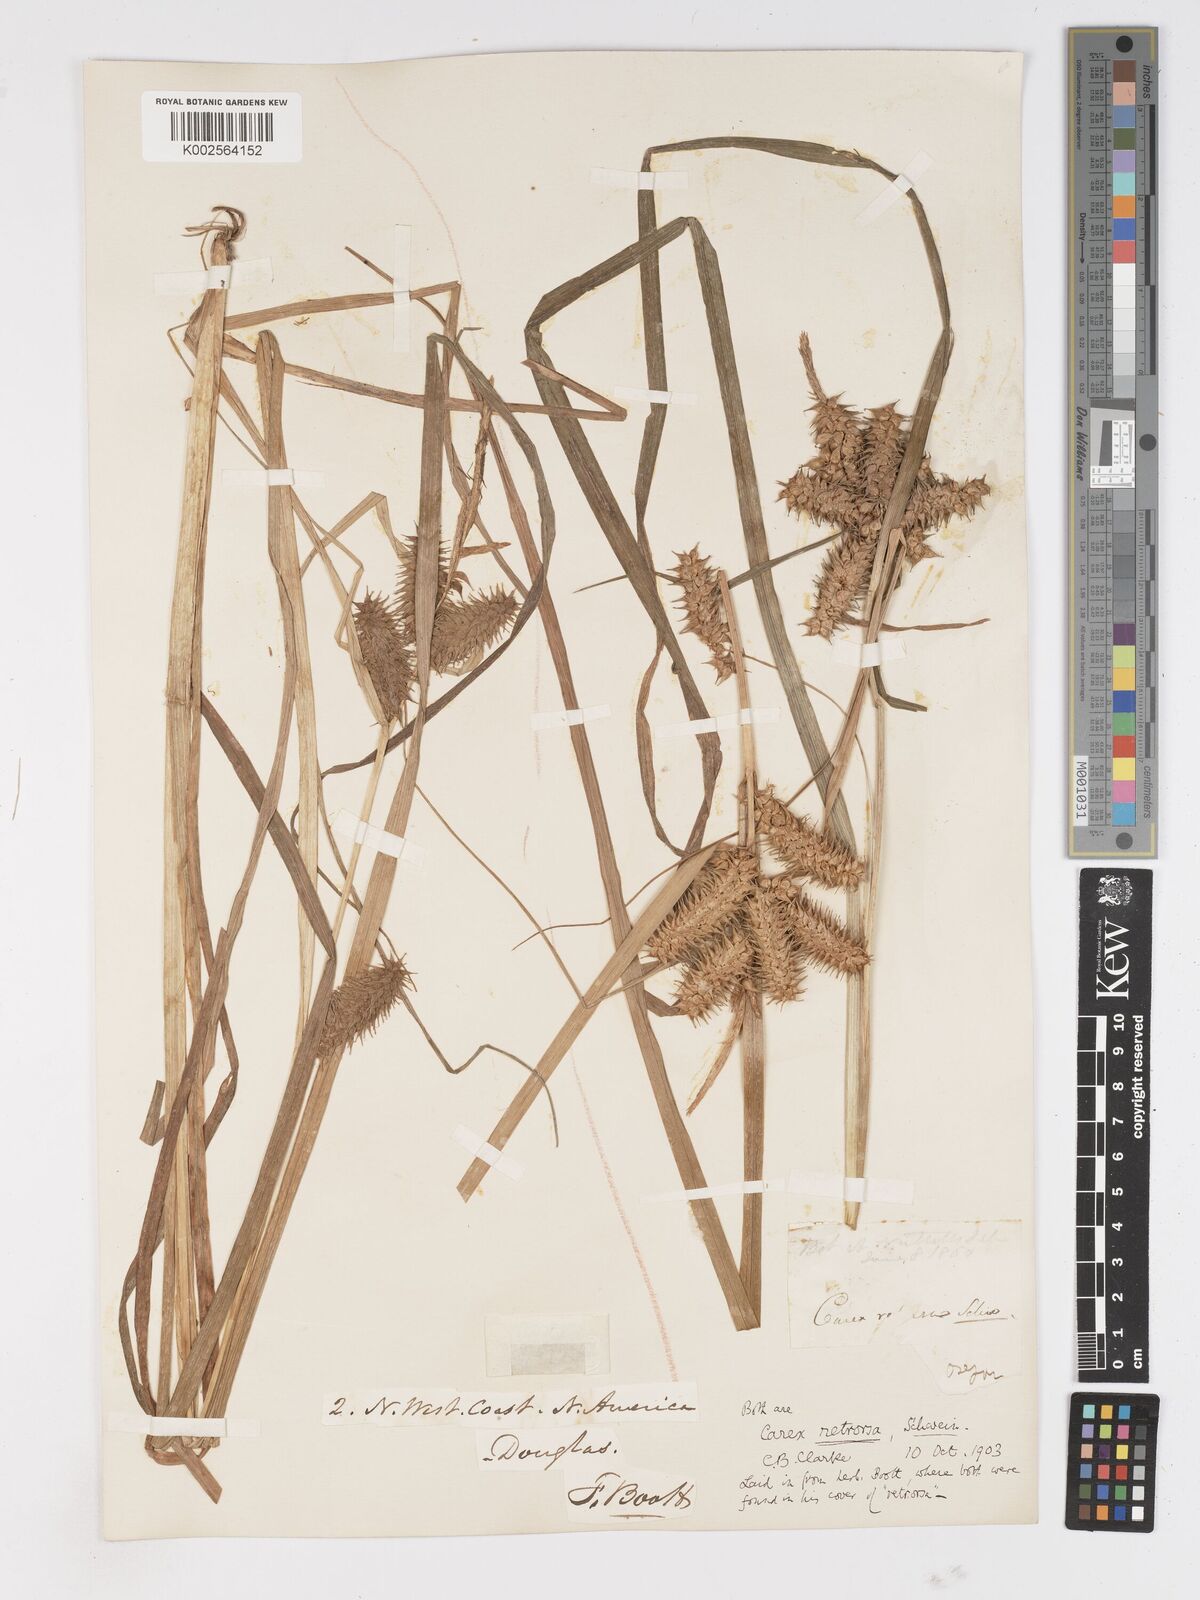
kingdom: Plantae
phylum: Tracheophyta
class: Liliopsida
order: Poales
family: Cyperaceae
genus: Carex
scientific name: Carex retrorsa
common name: Knot-sheath sedge
